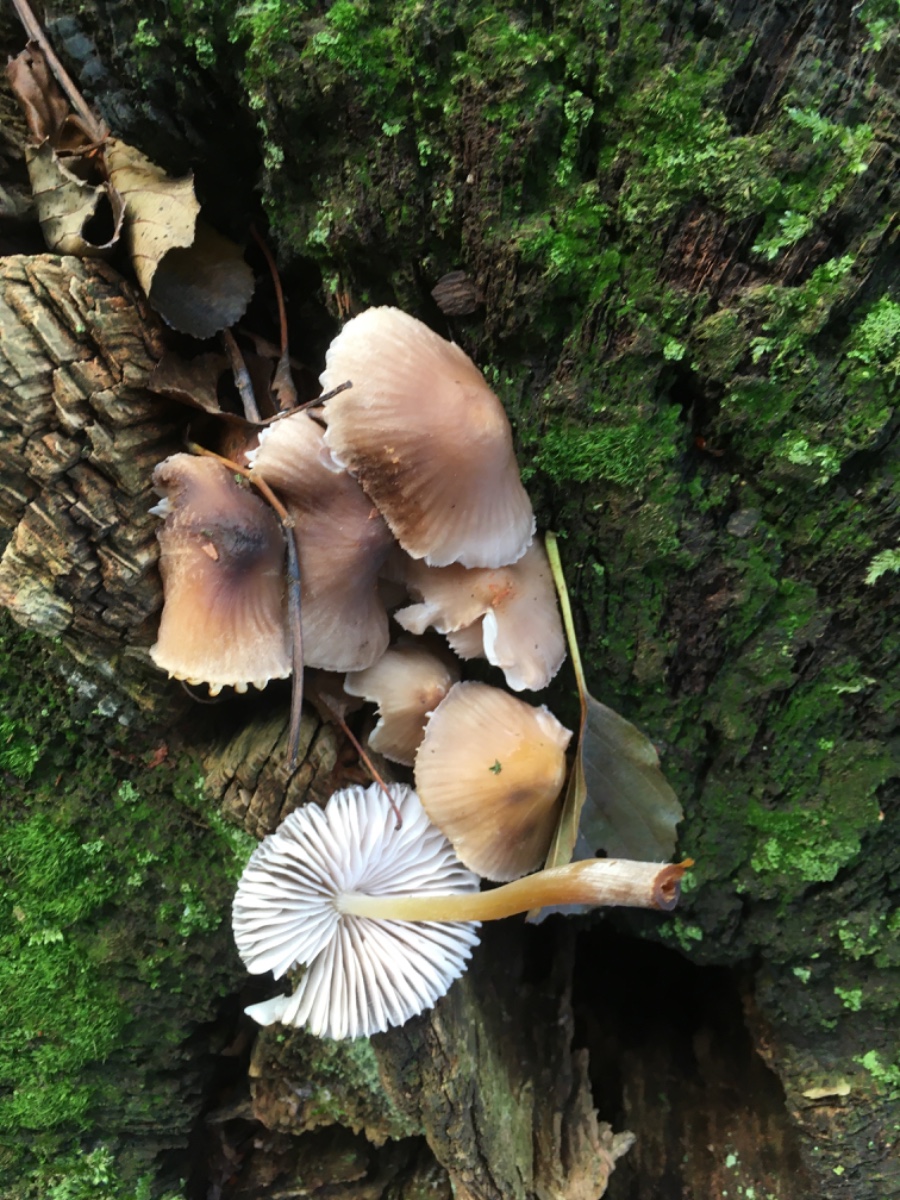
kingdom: Fungi
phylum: Basidiomycota
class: Agaricomycetes
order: Agaricales
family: Mycenaceae
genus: Mycena
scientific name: Mycena galericulata
